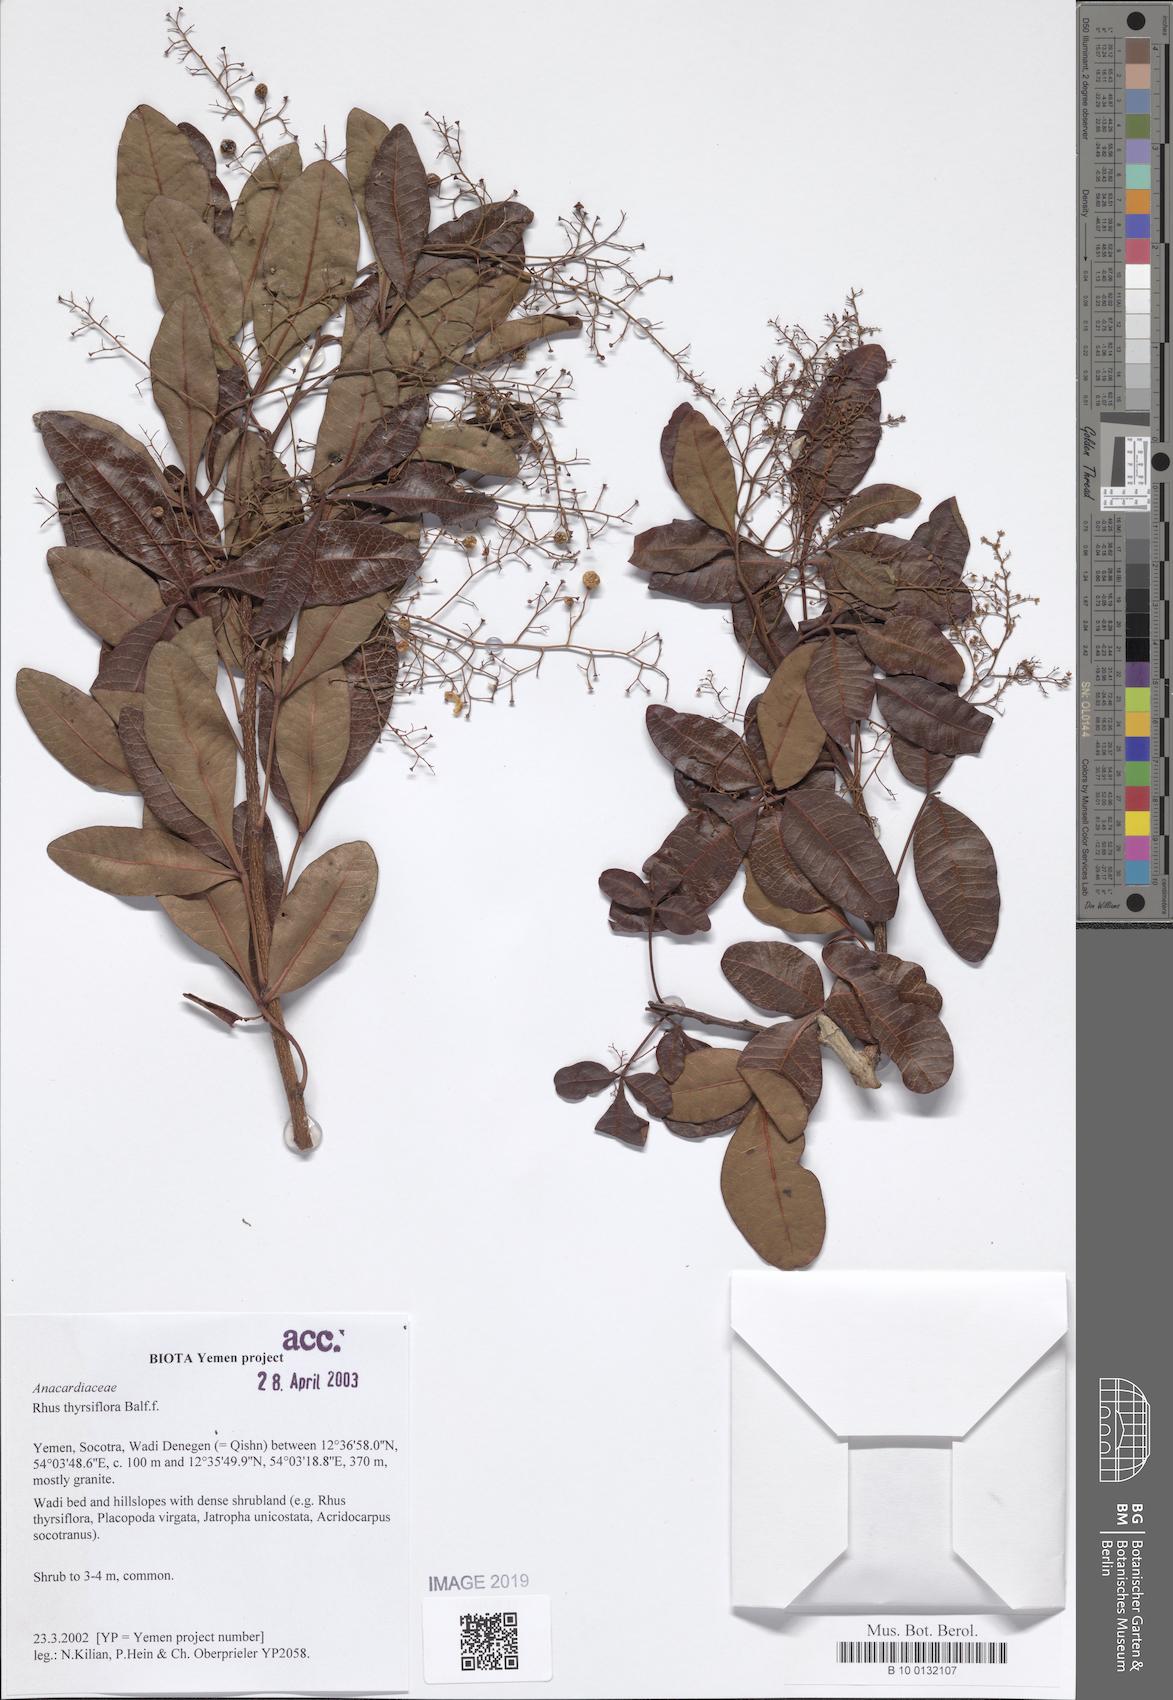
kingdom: Plantae
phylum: Tracheophyta
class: Magnoliopsida
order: Sapindales
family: Anacardiaceae
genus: Searsia
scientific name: Searsia thyrsiflora
